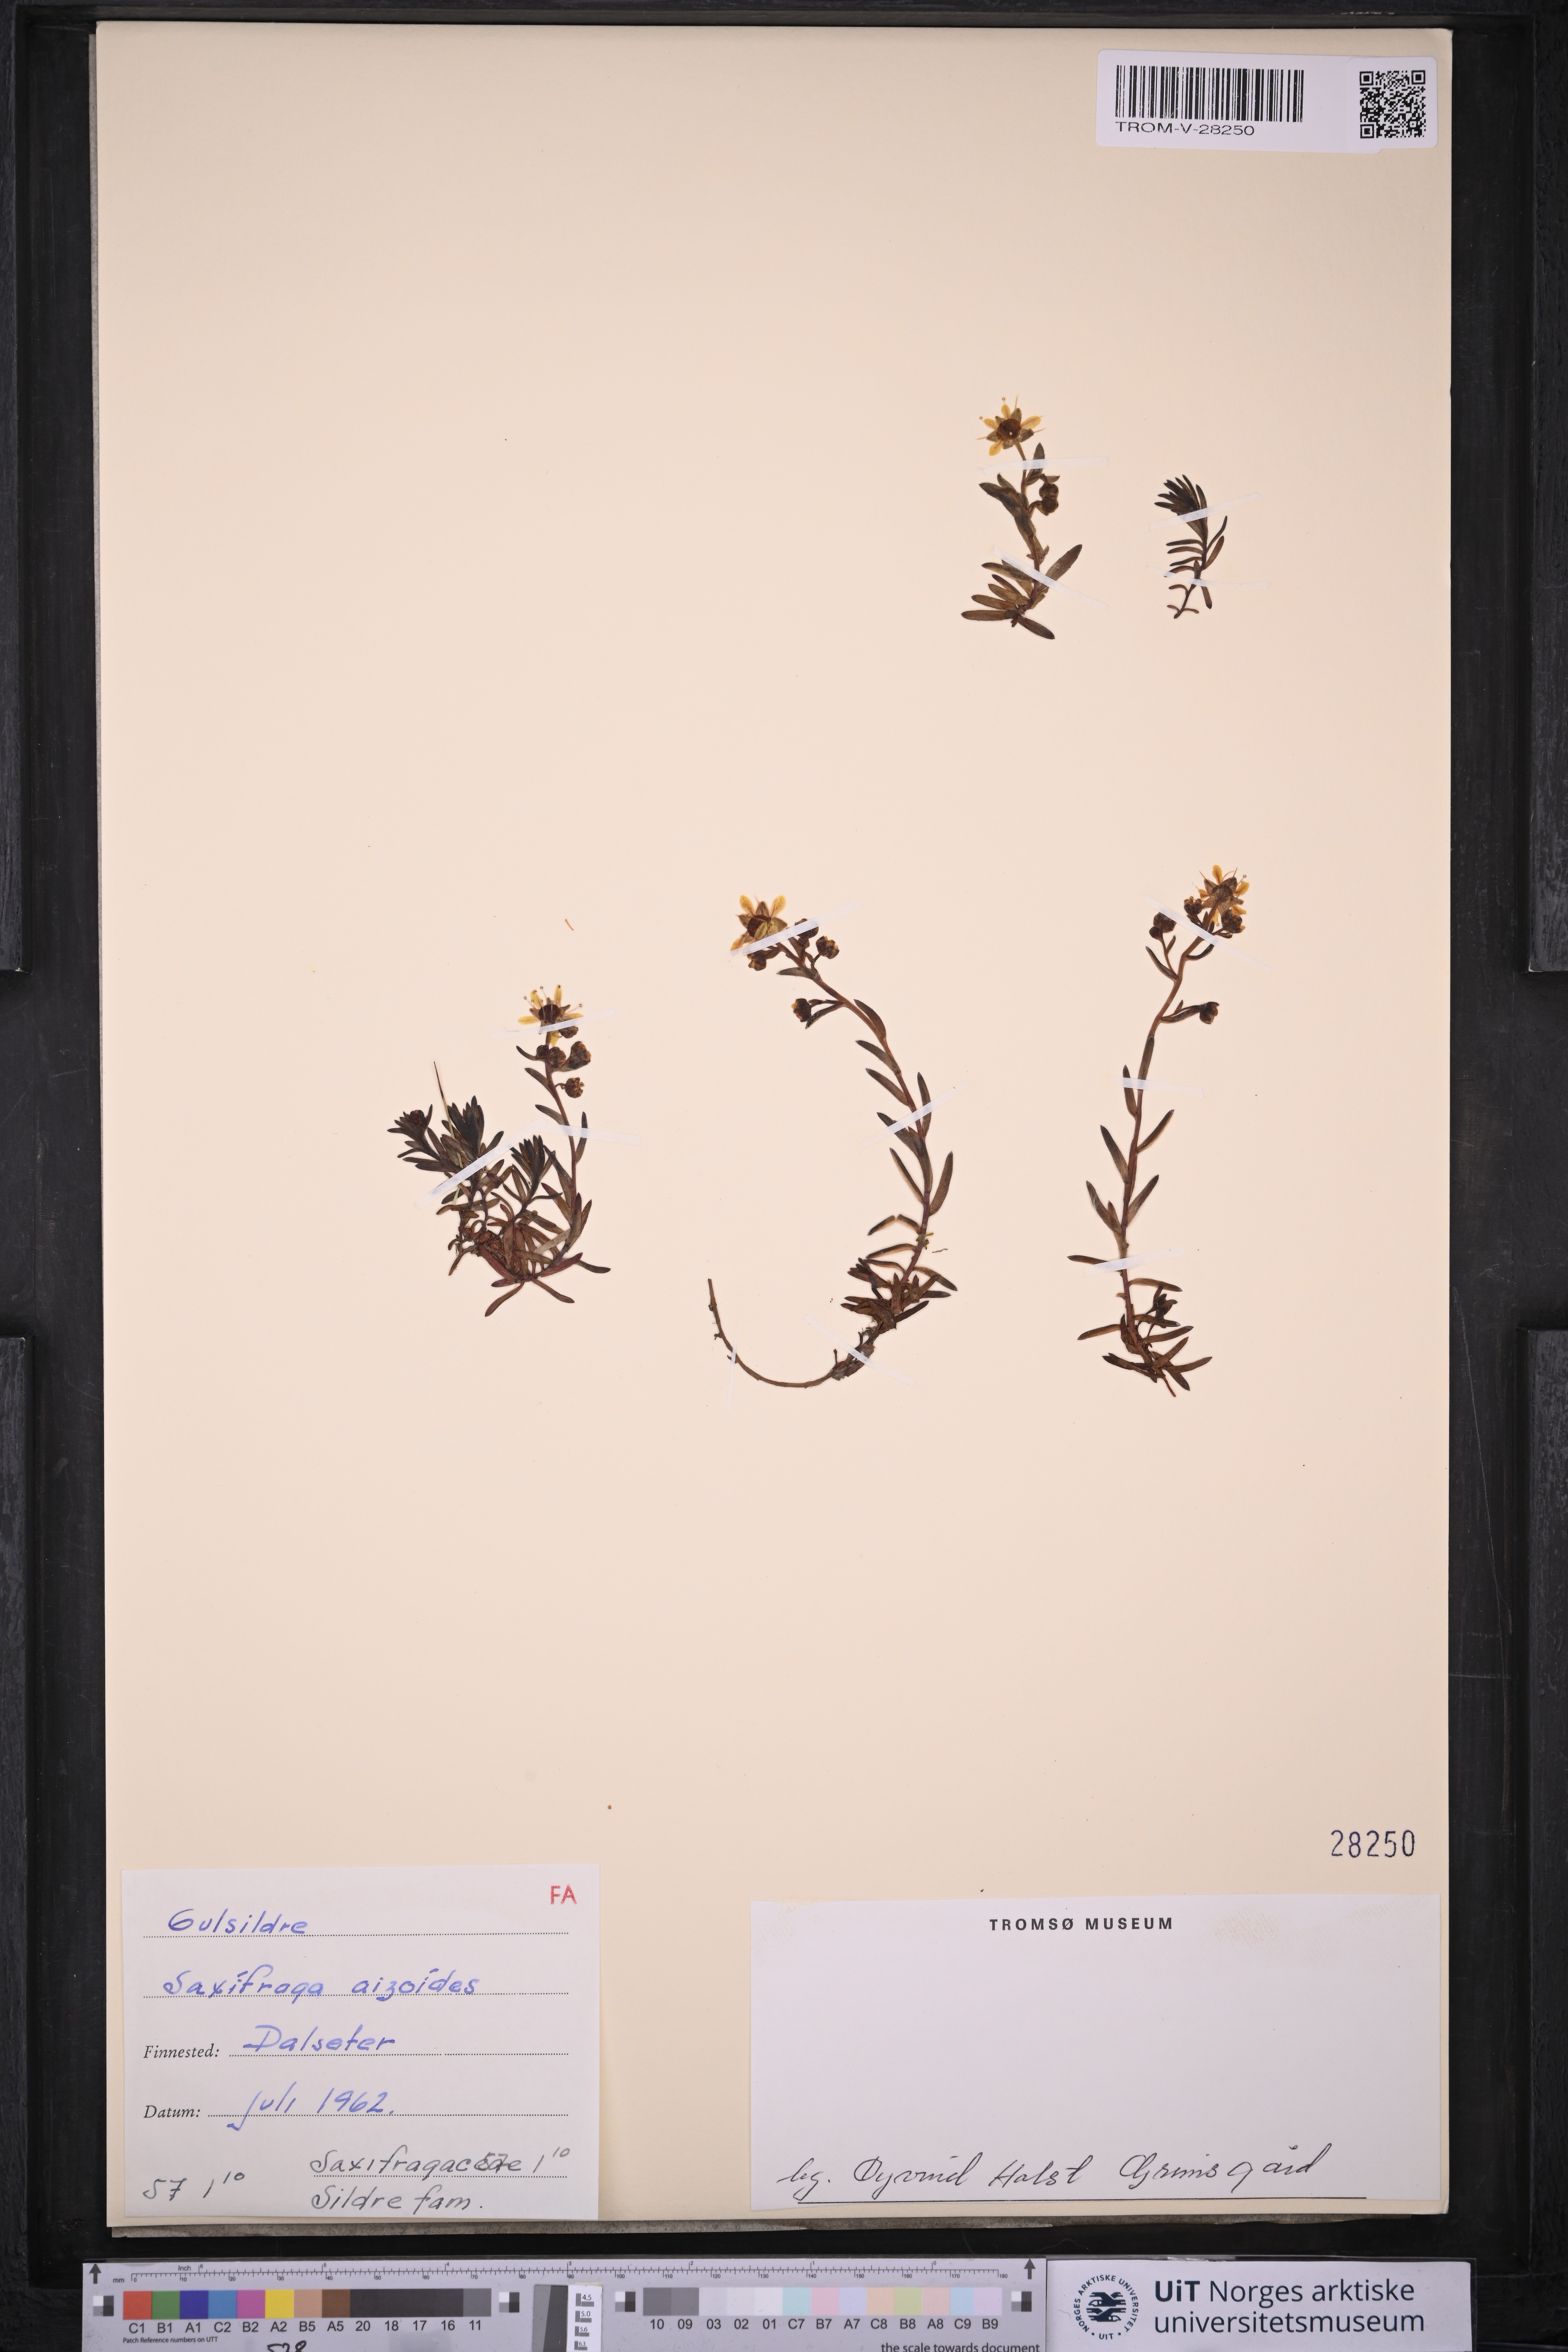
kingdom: Plantae
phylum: Tracheophyta
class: Magnoliopsida
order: Saxifragales
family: Saxifragaceae
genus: Saxifraga
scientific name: Saxifraga aizoides
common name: Yellow mountain saxifrage
